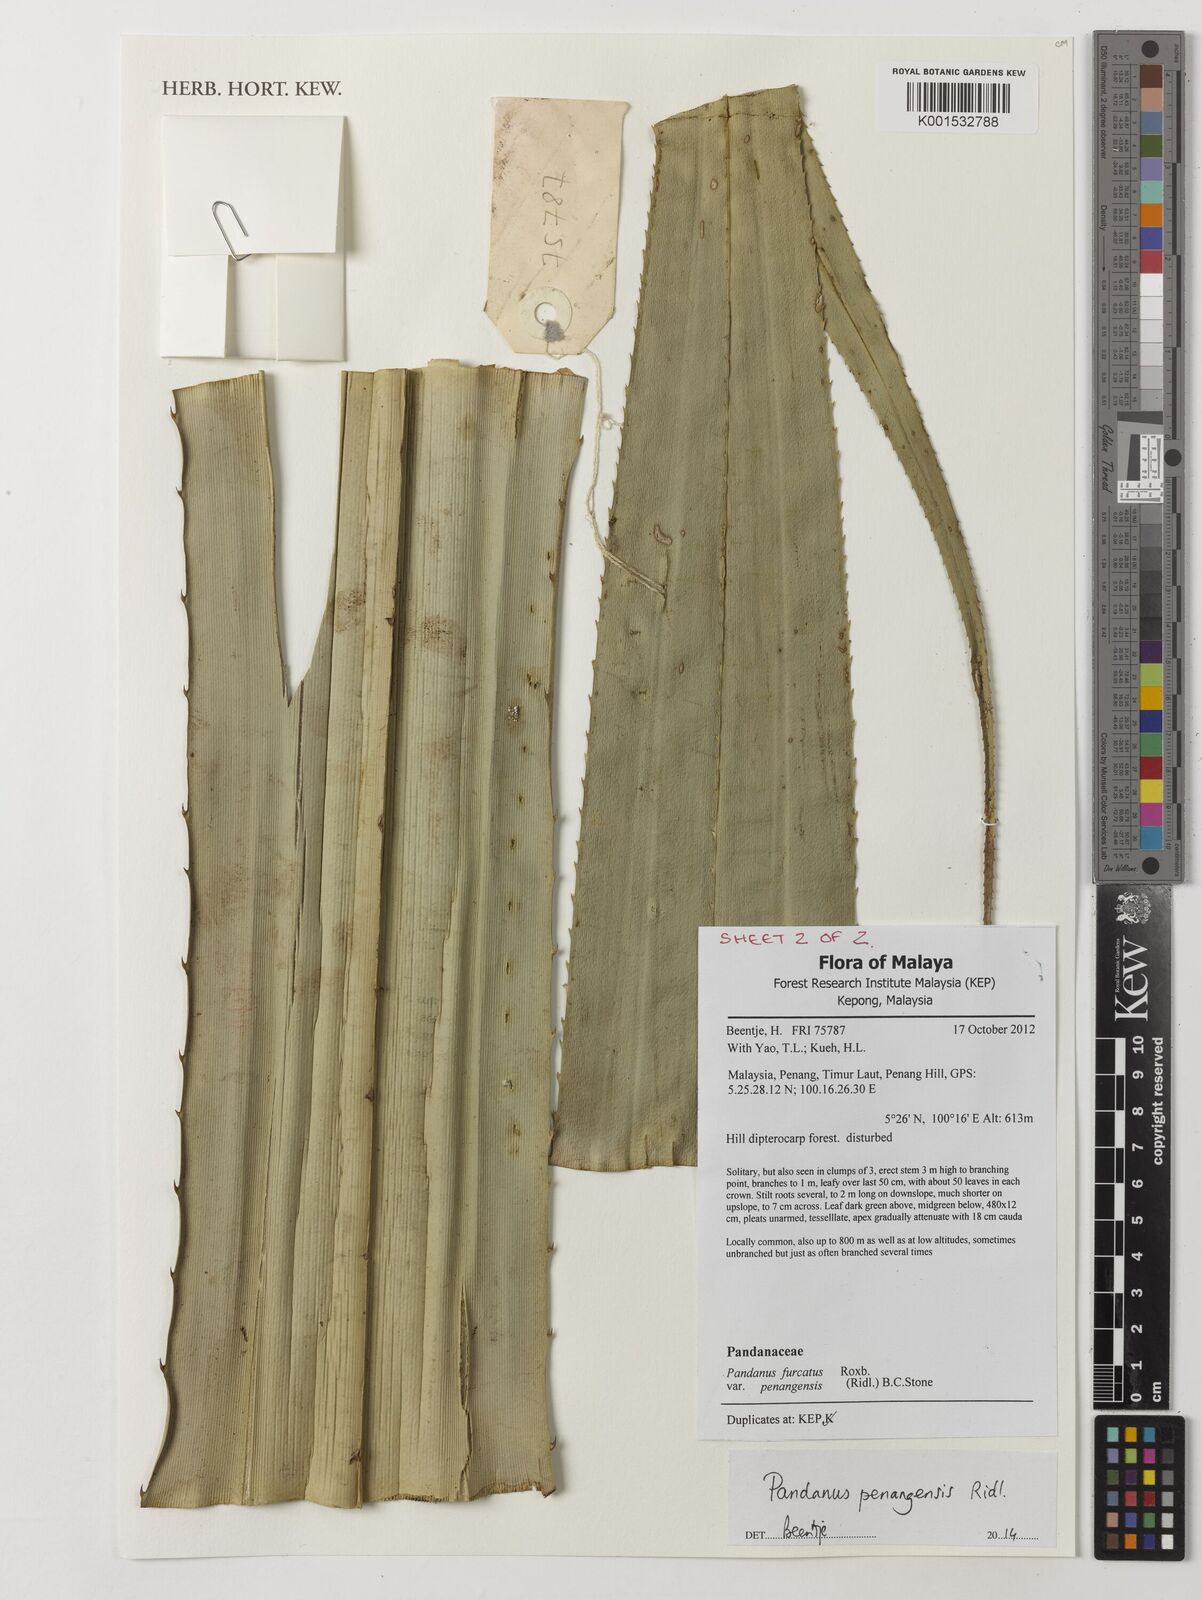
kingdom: Plantae
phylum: Tracheophyta
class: Liliopsida
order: Pandanales
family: Pandanaceae
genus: Pandanus
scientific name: Pandanus penangensis
